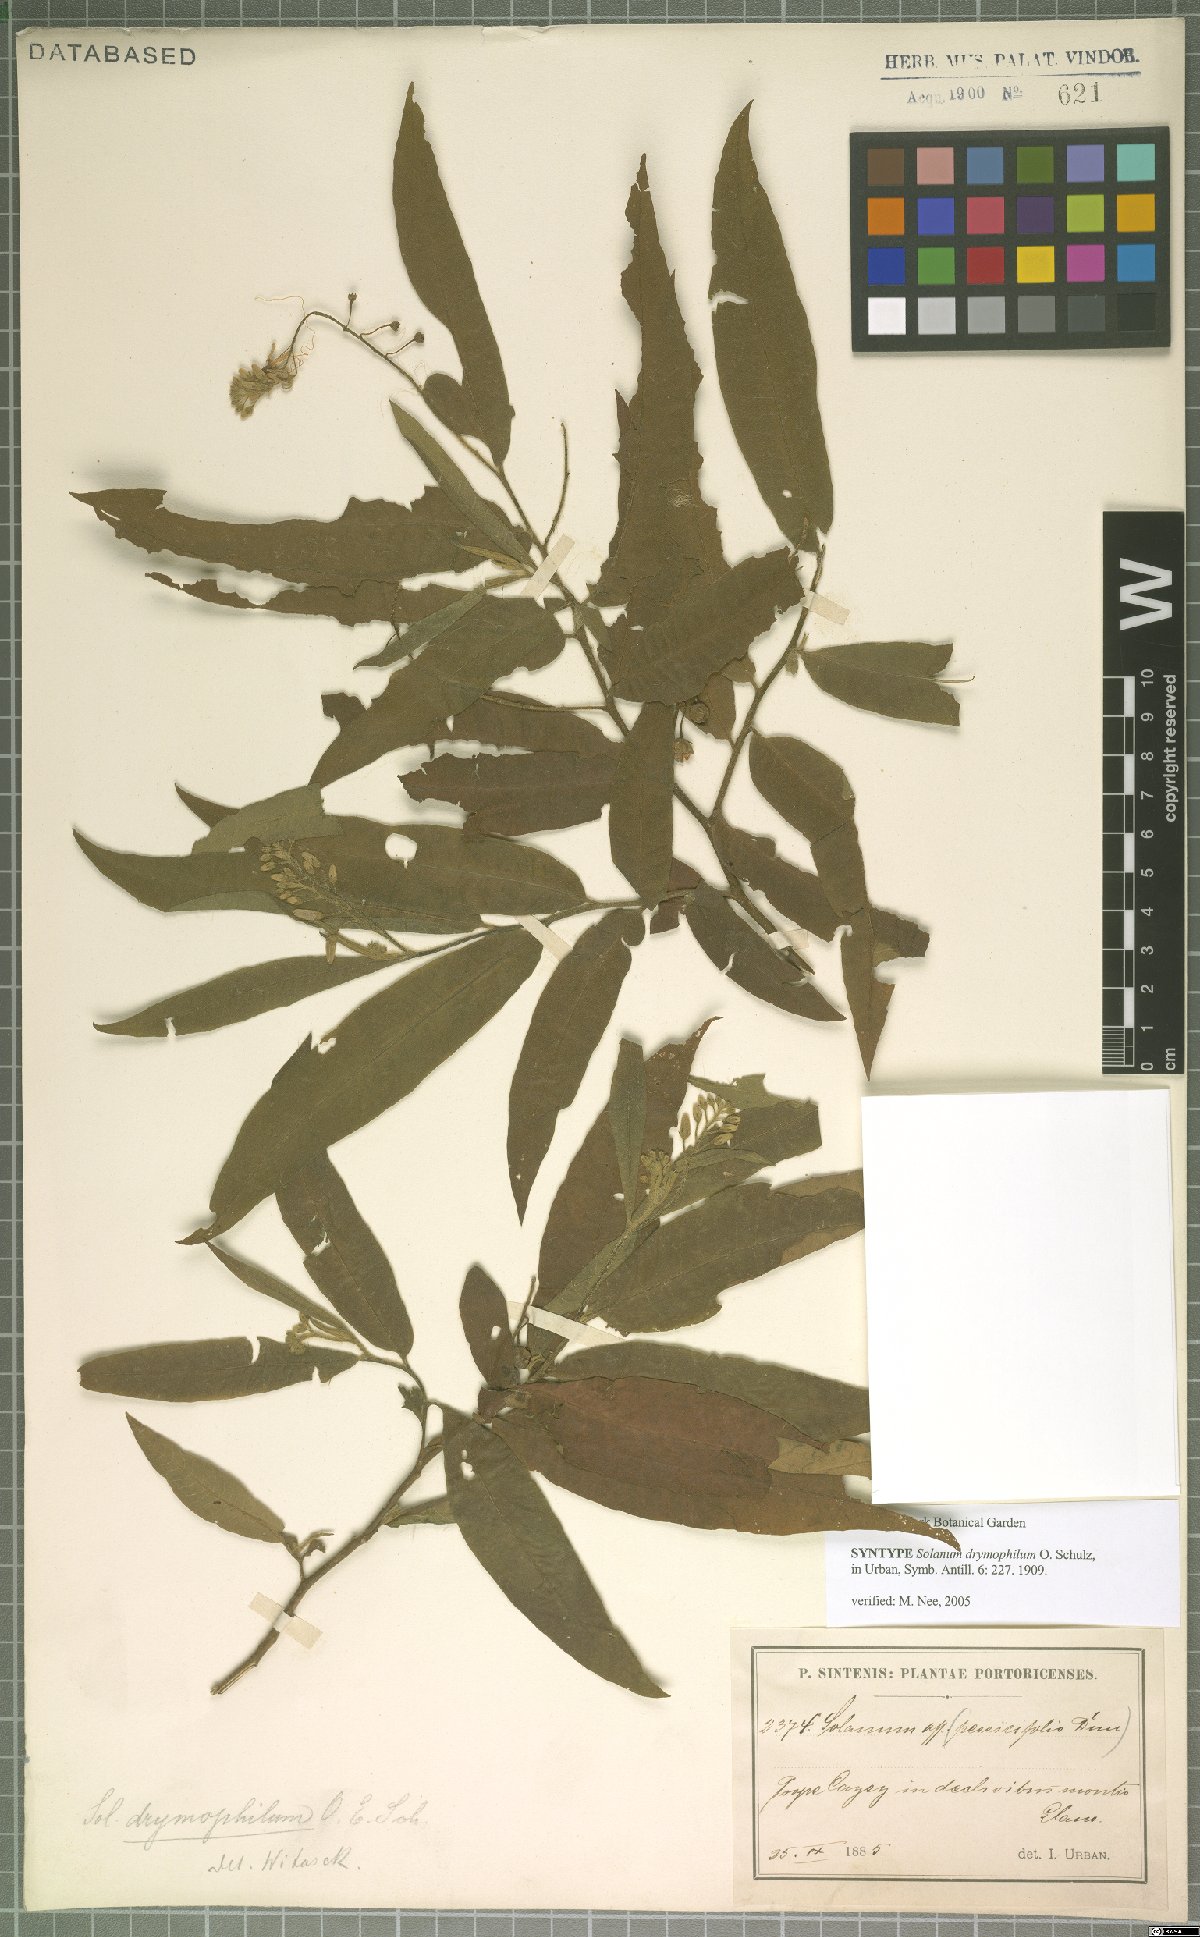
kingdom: Plantae
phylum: Tracheophyta
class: Magnoliopsida
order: Solanales
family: Solanaceae
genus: Solanum
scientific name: Solanum ensifolium
